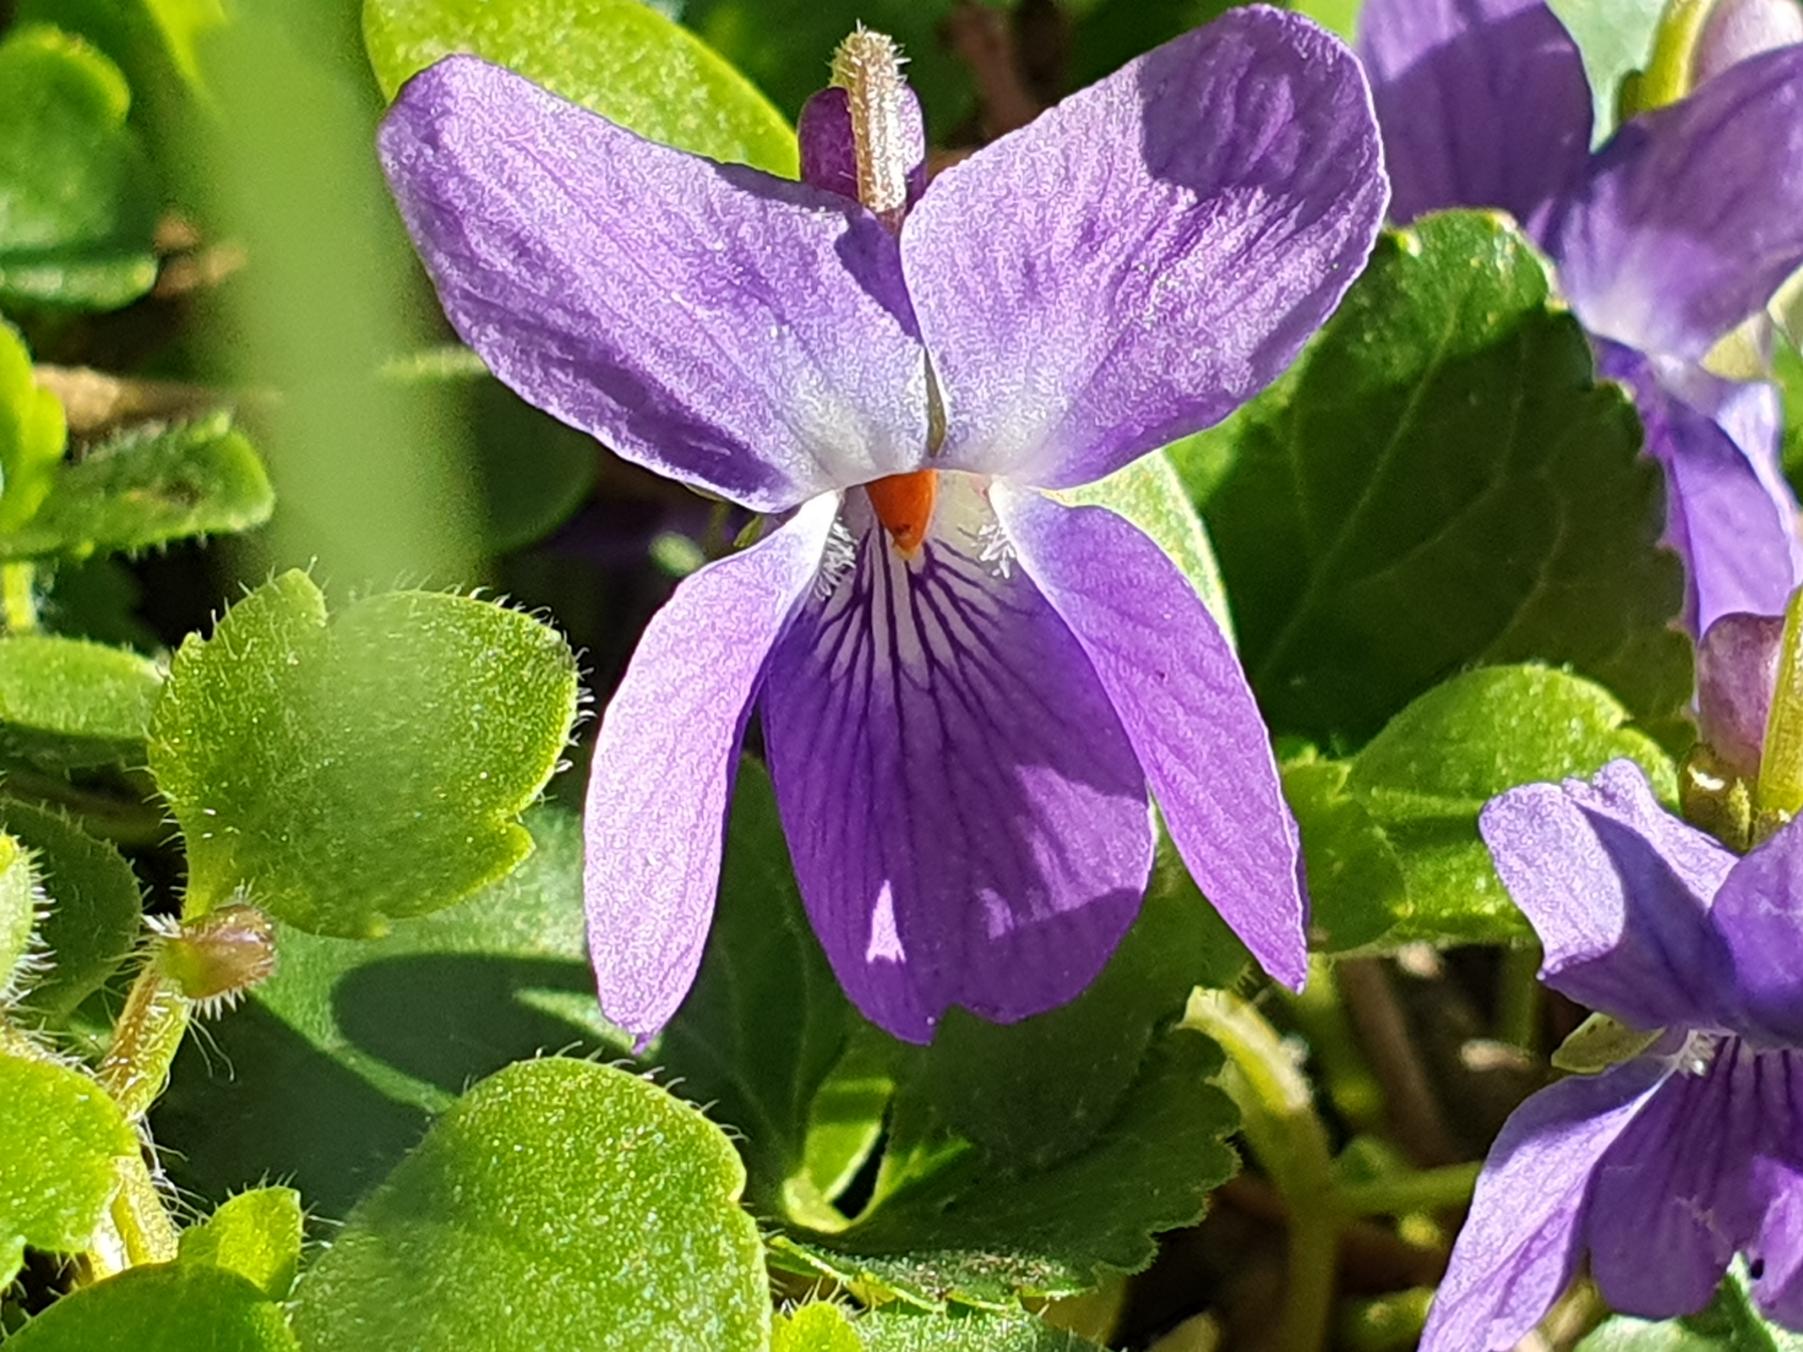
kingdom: Plantae
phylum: Tracheophyta
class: Magnoliopsida
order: Malpighiales
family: Violaceae
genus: Viola
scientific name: Viola odorata
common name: Marts-viol
